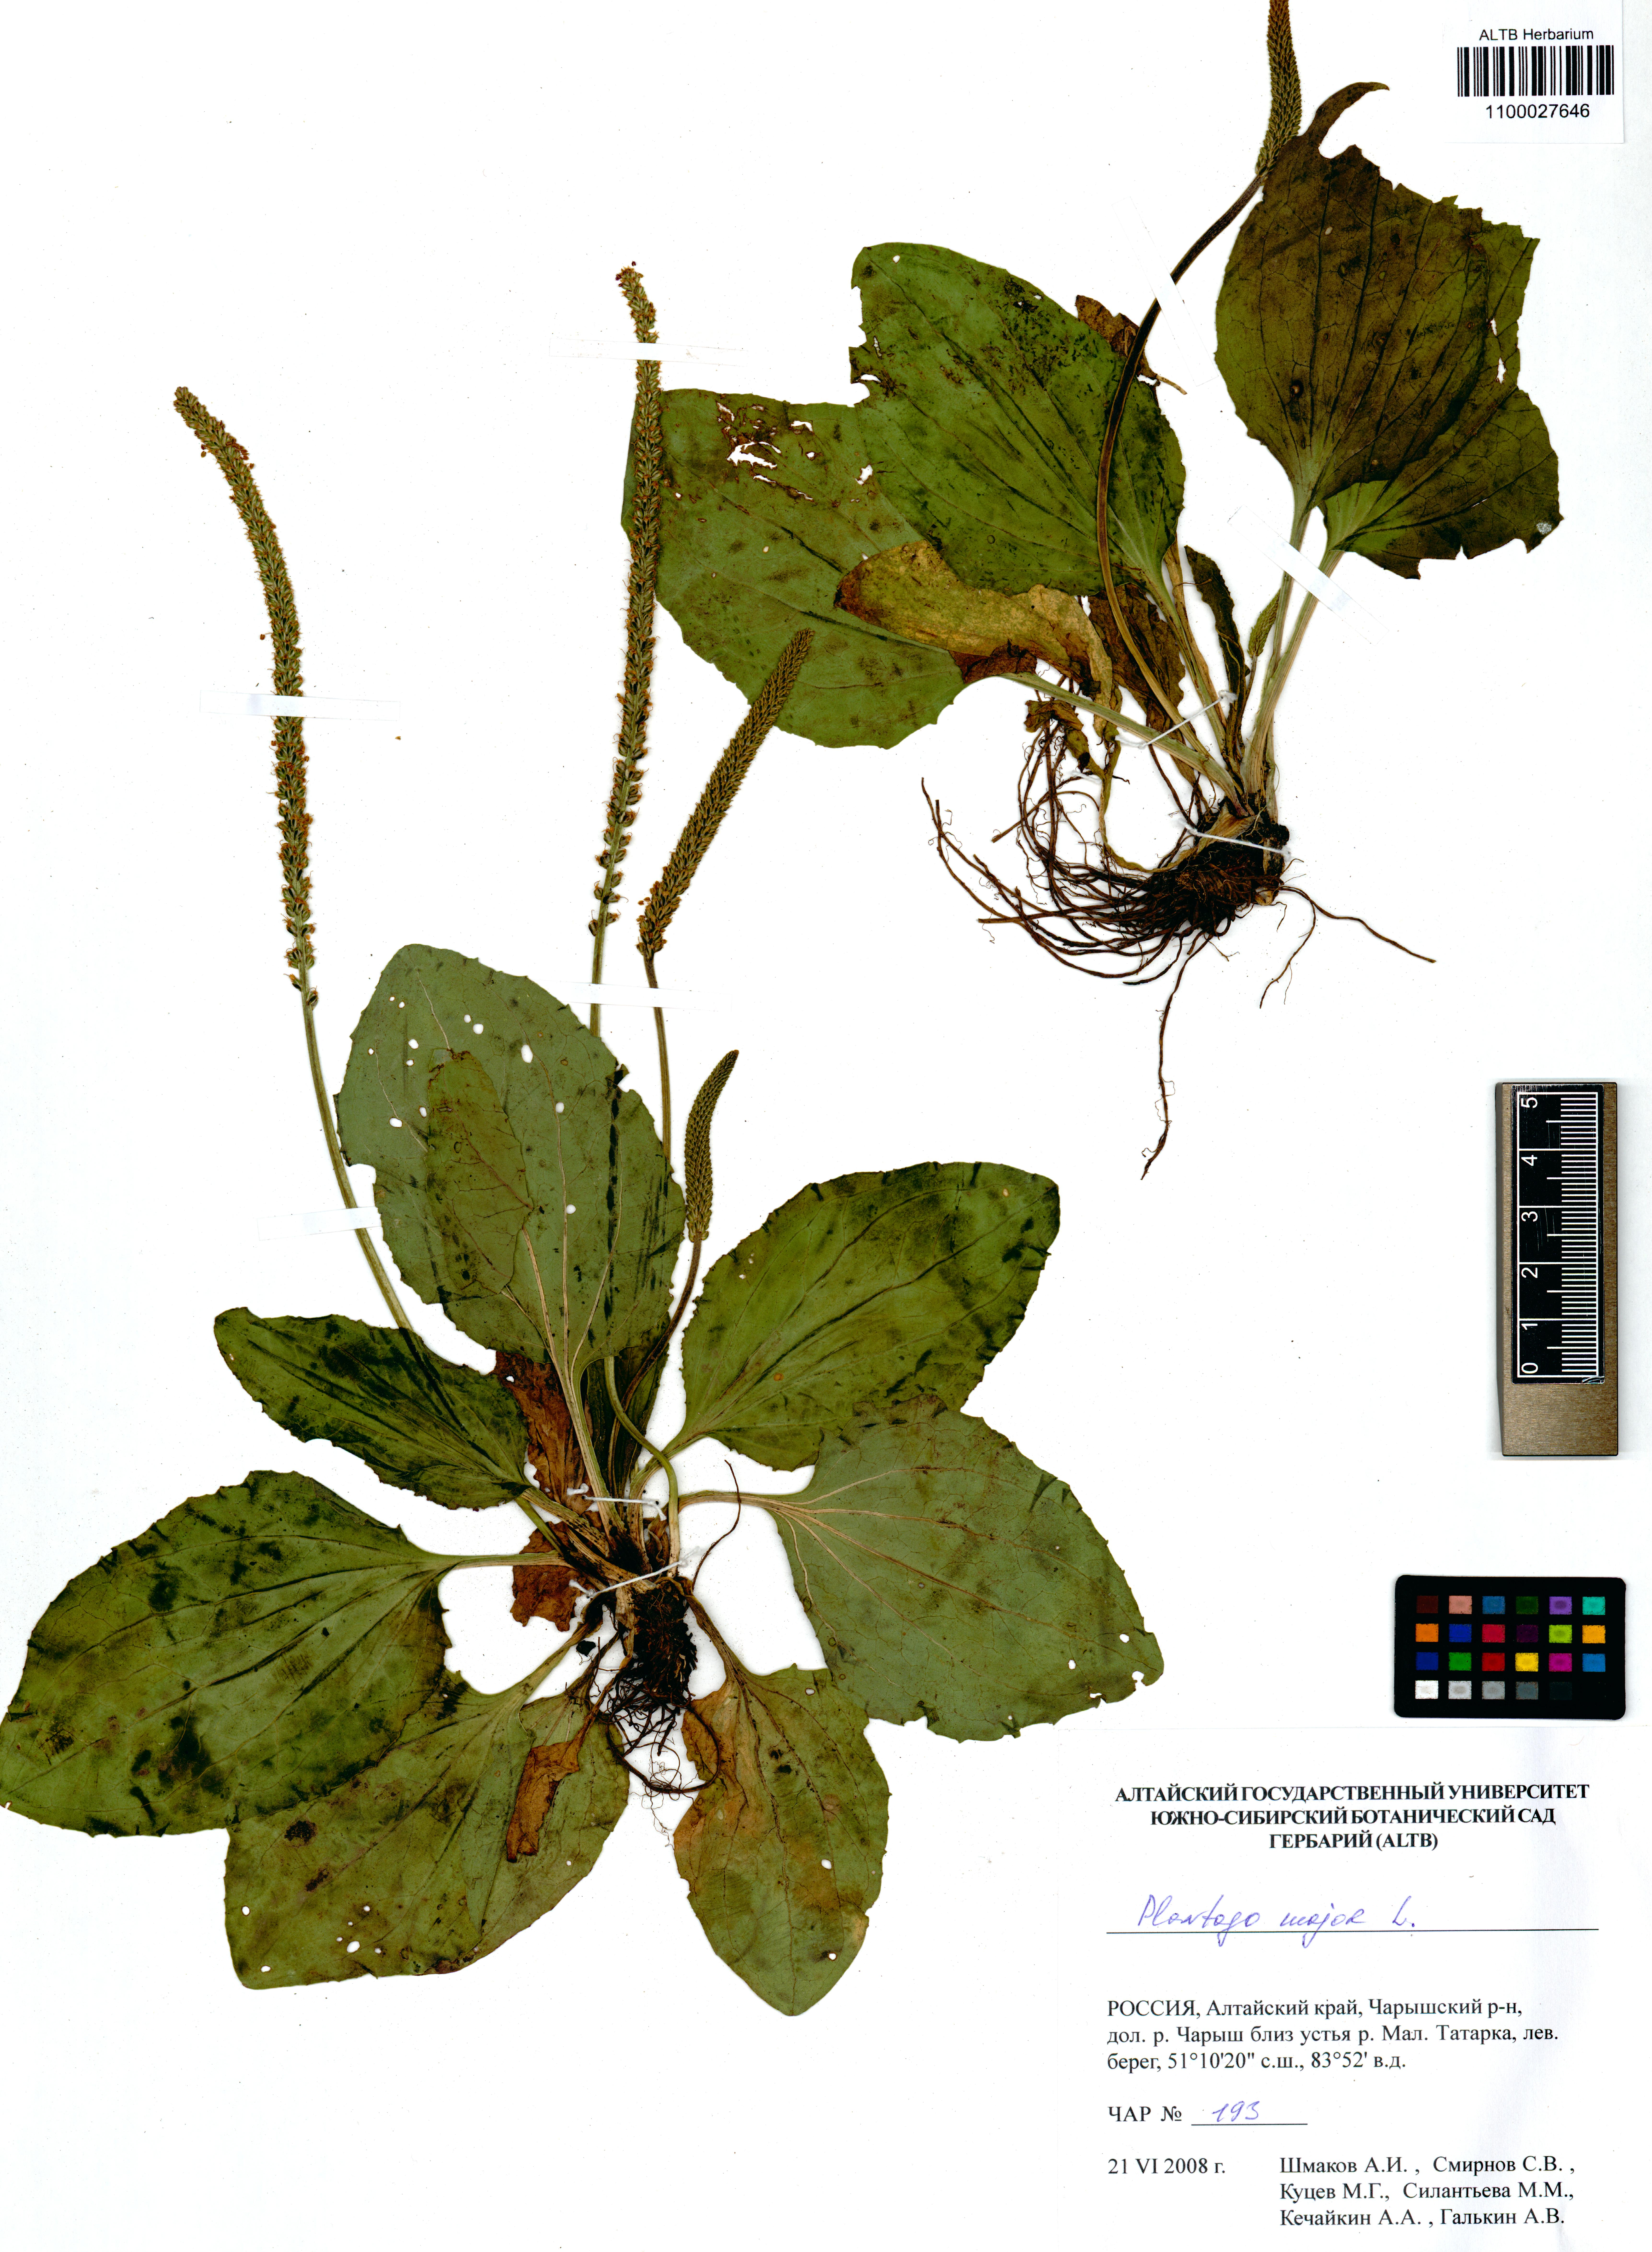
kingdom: Plantae
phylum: Tracheophyta
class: Magnoliopsida
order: Lamiales
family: Plantaginaceae
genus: Plantago
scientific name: Plantago major
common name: Common plantain
